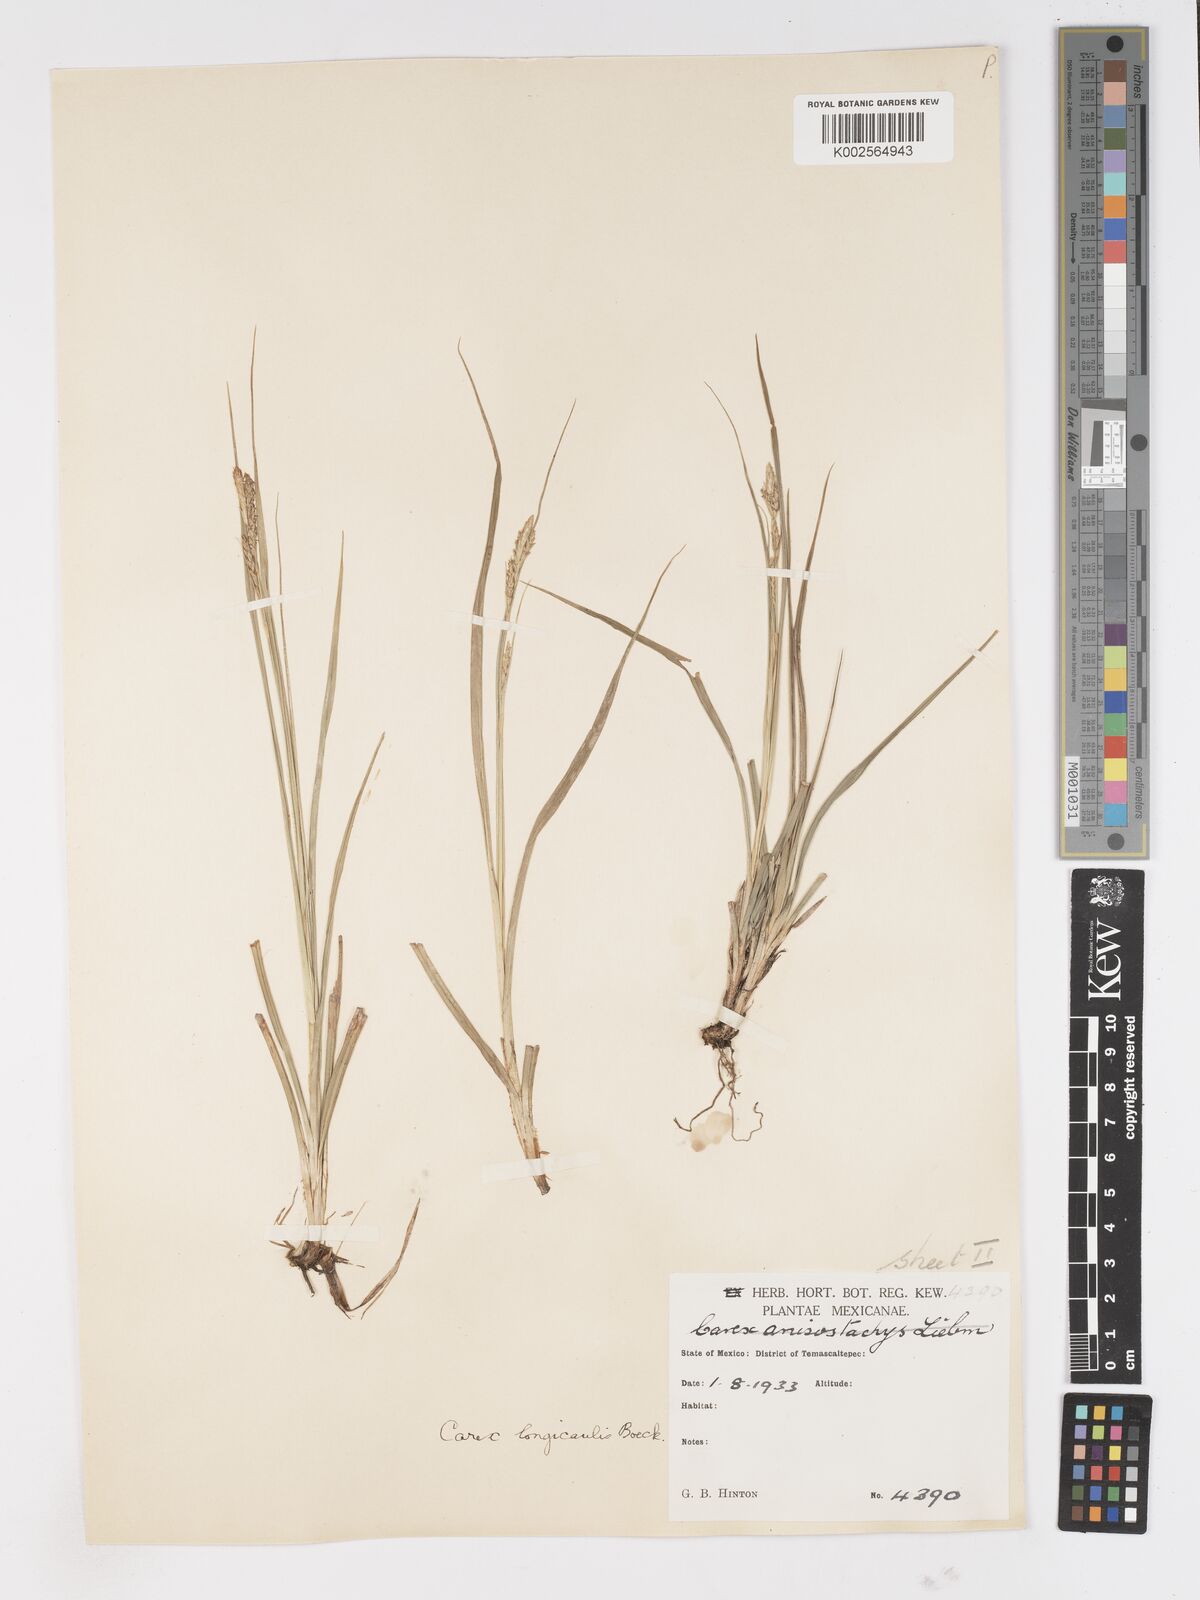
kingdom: Plantae
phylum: Tracheophyta
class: Liliopsida
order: Poales
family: Cyperaceae
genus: Carex
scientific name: Carex longicaulis
